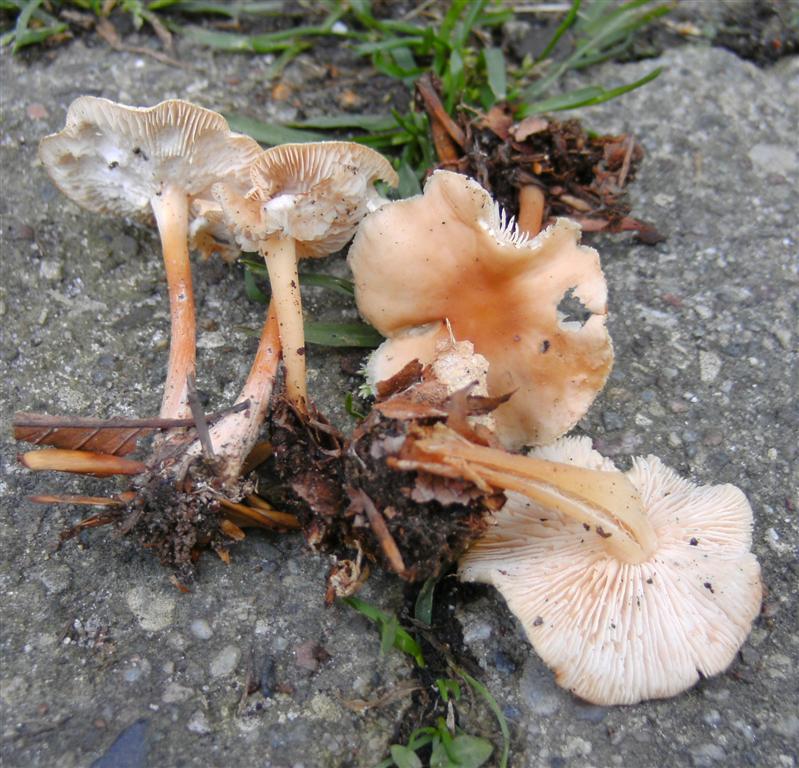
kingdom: Fungi
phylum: Basidiomycota
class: Agaricomycetes
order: Agaricales
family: Omphalotaceae
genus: Gymnopus
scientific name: Gymnopus dryophilus
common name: løv-fladhat
